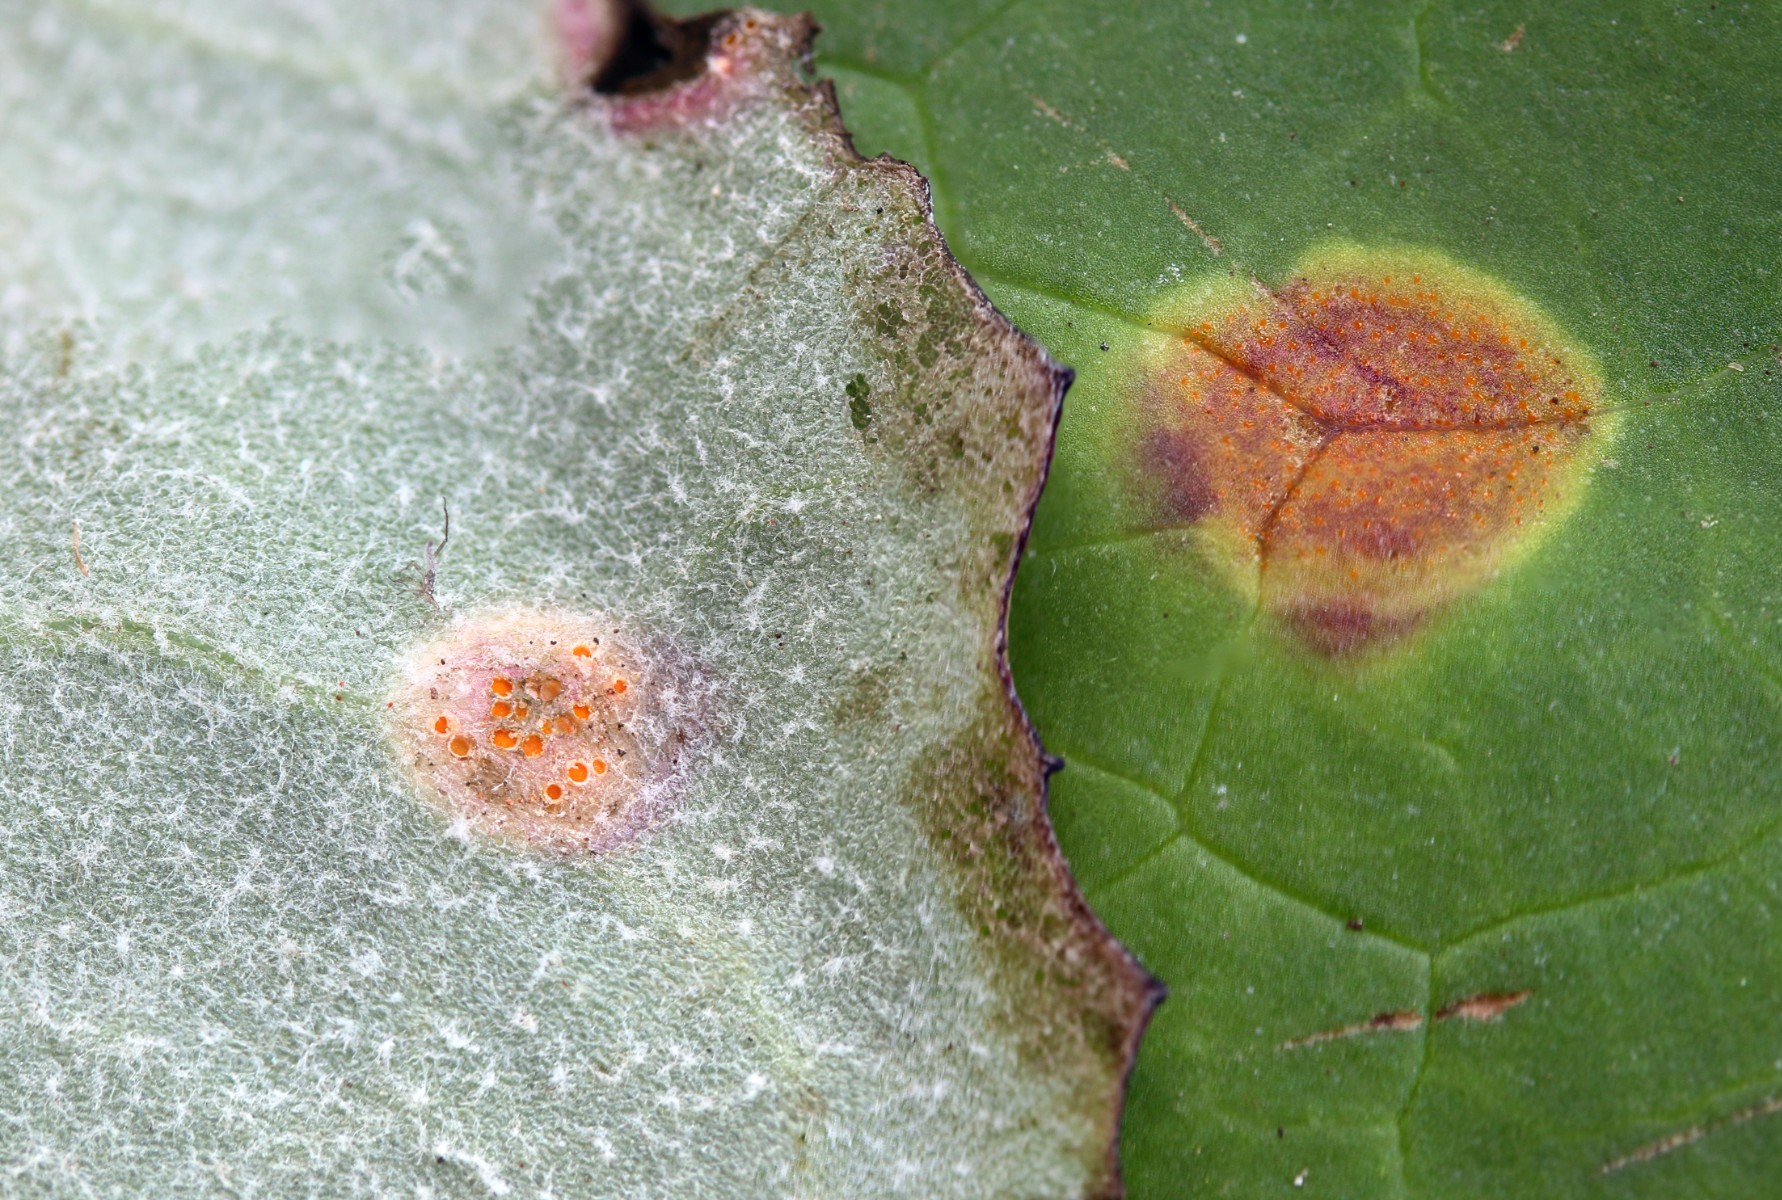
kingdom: Fungi
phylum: Basidiomycota
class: Pucciniomycetes
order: Pucciniales
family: Pucciniaceae
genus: Puccinia
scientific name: Puccinia poarum
